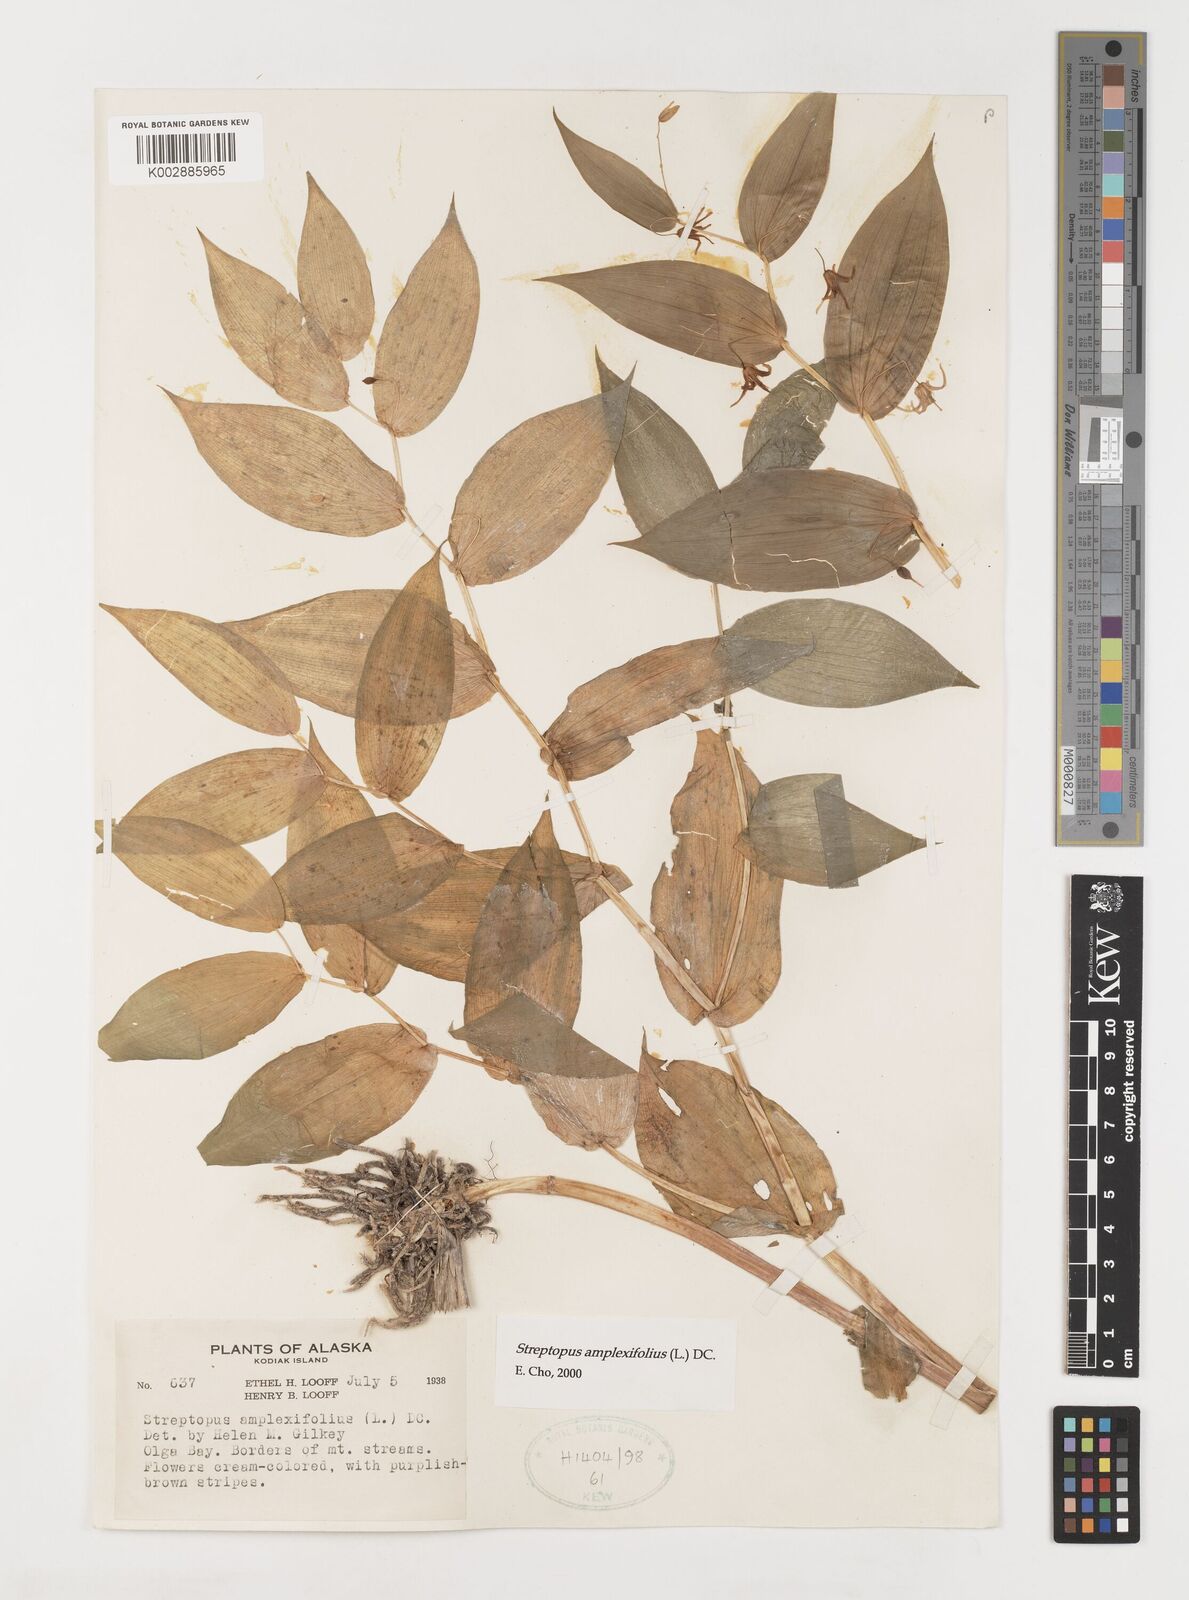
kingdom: Plantae
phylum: Tracheophyta
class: Liliopsida
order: Liliales
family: Liliaceae
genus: Streptopus
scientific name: Streptopus amplexifolius
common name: Clasp twisted stalk
